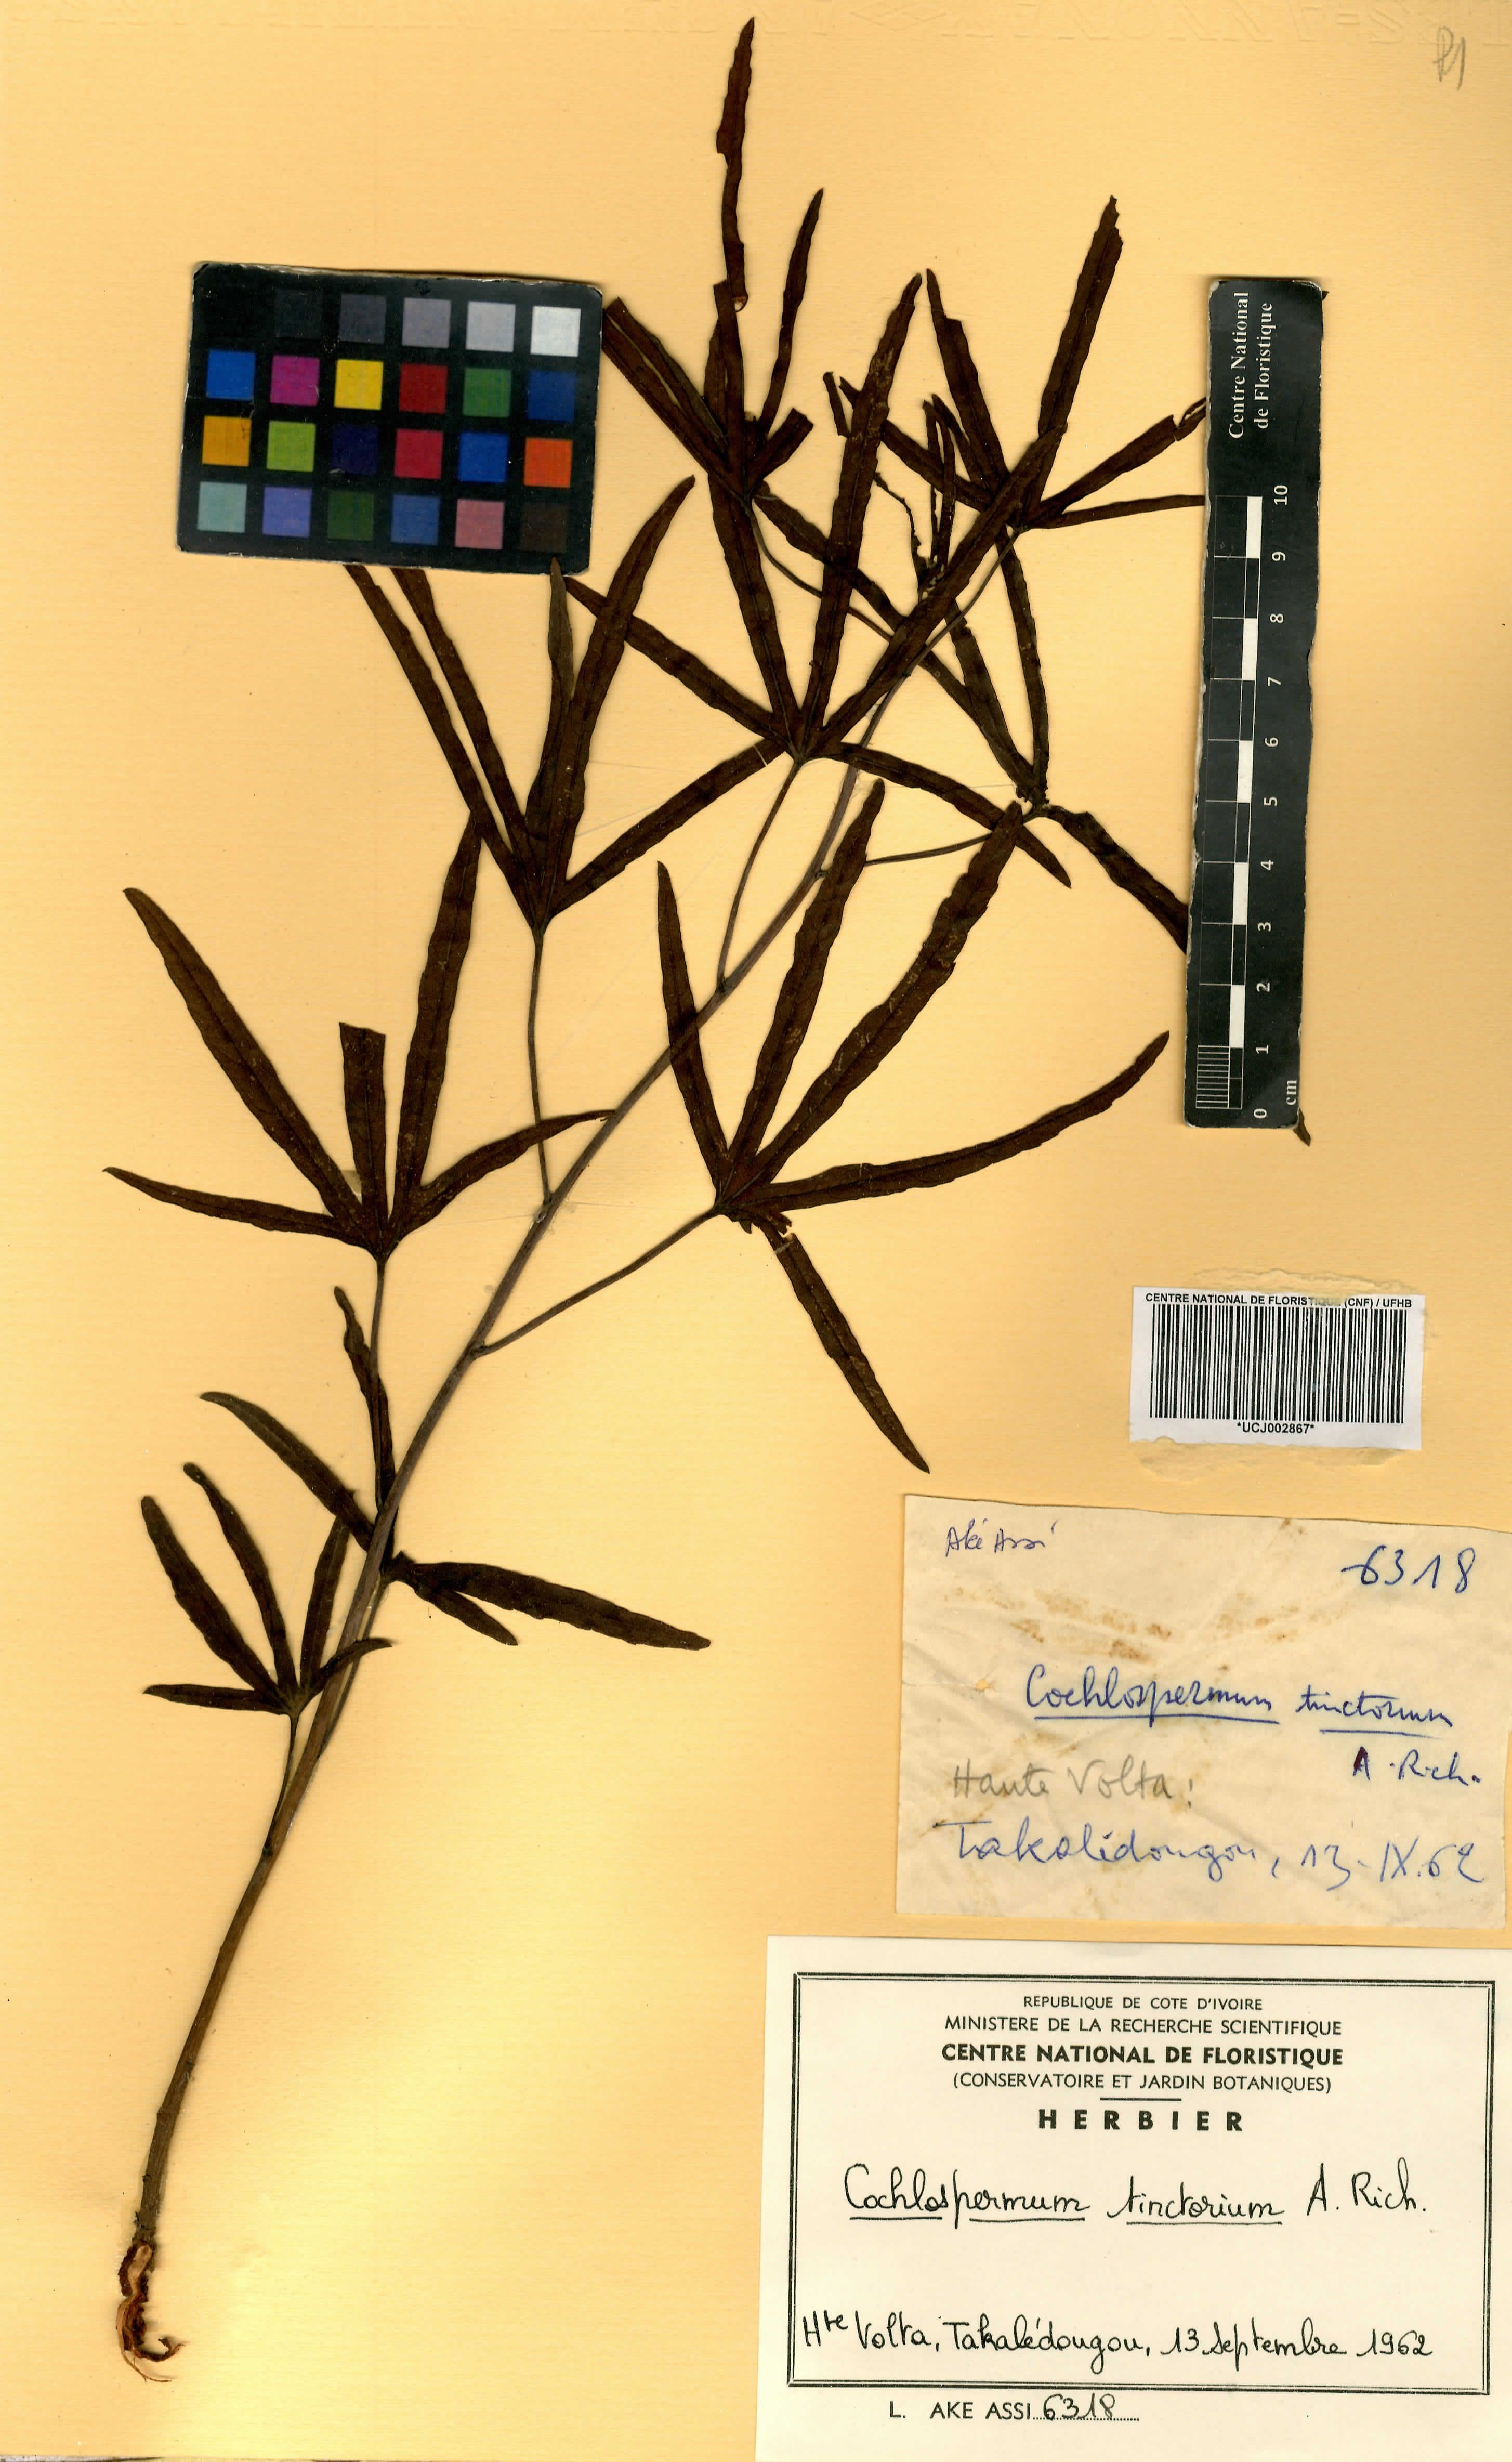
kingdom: Plantae
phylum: Tracheophyta
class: Magnoliopsida
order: Malvales
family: Cochlospermaceae
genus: Cochlospermum
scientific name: Cochlospermum tinctorium
